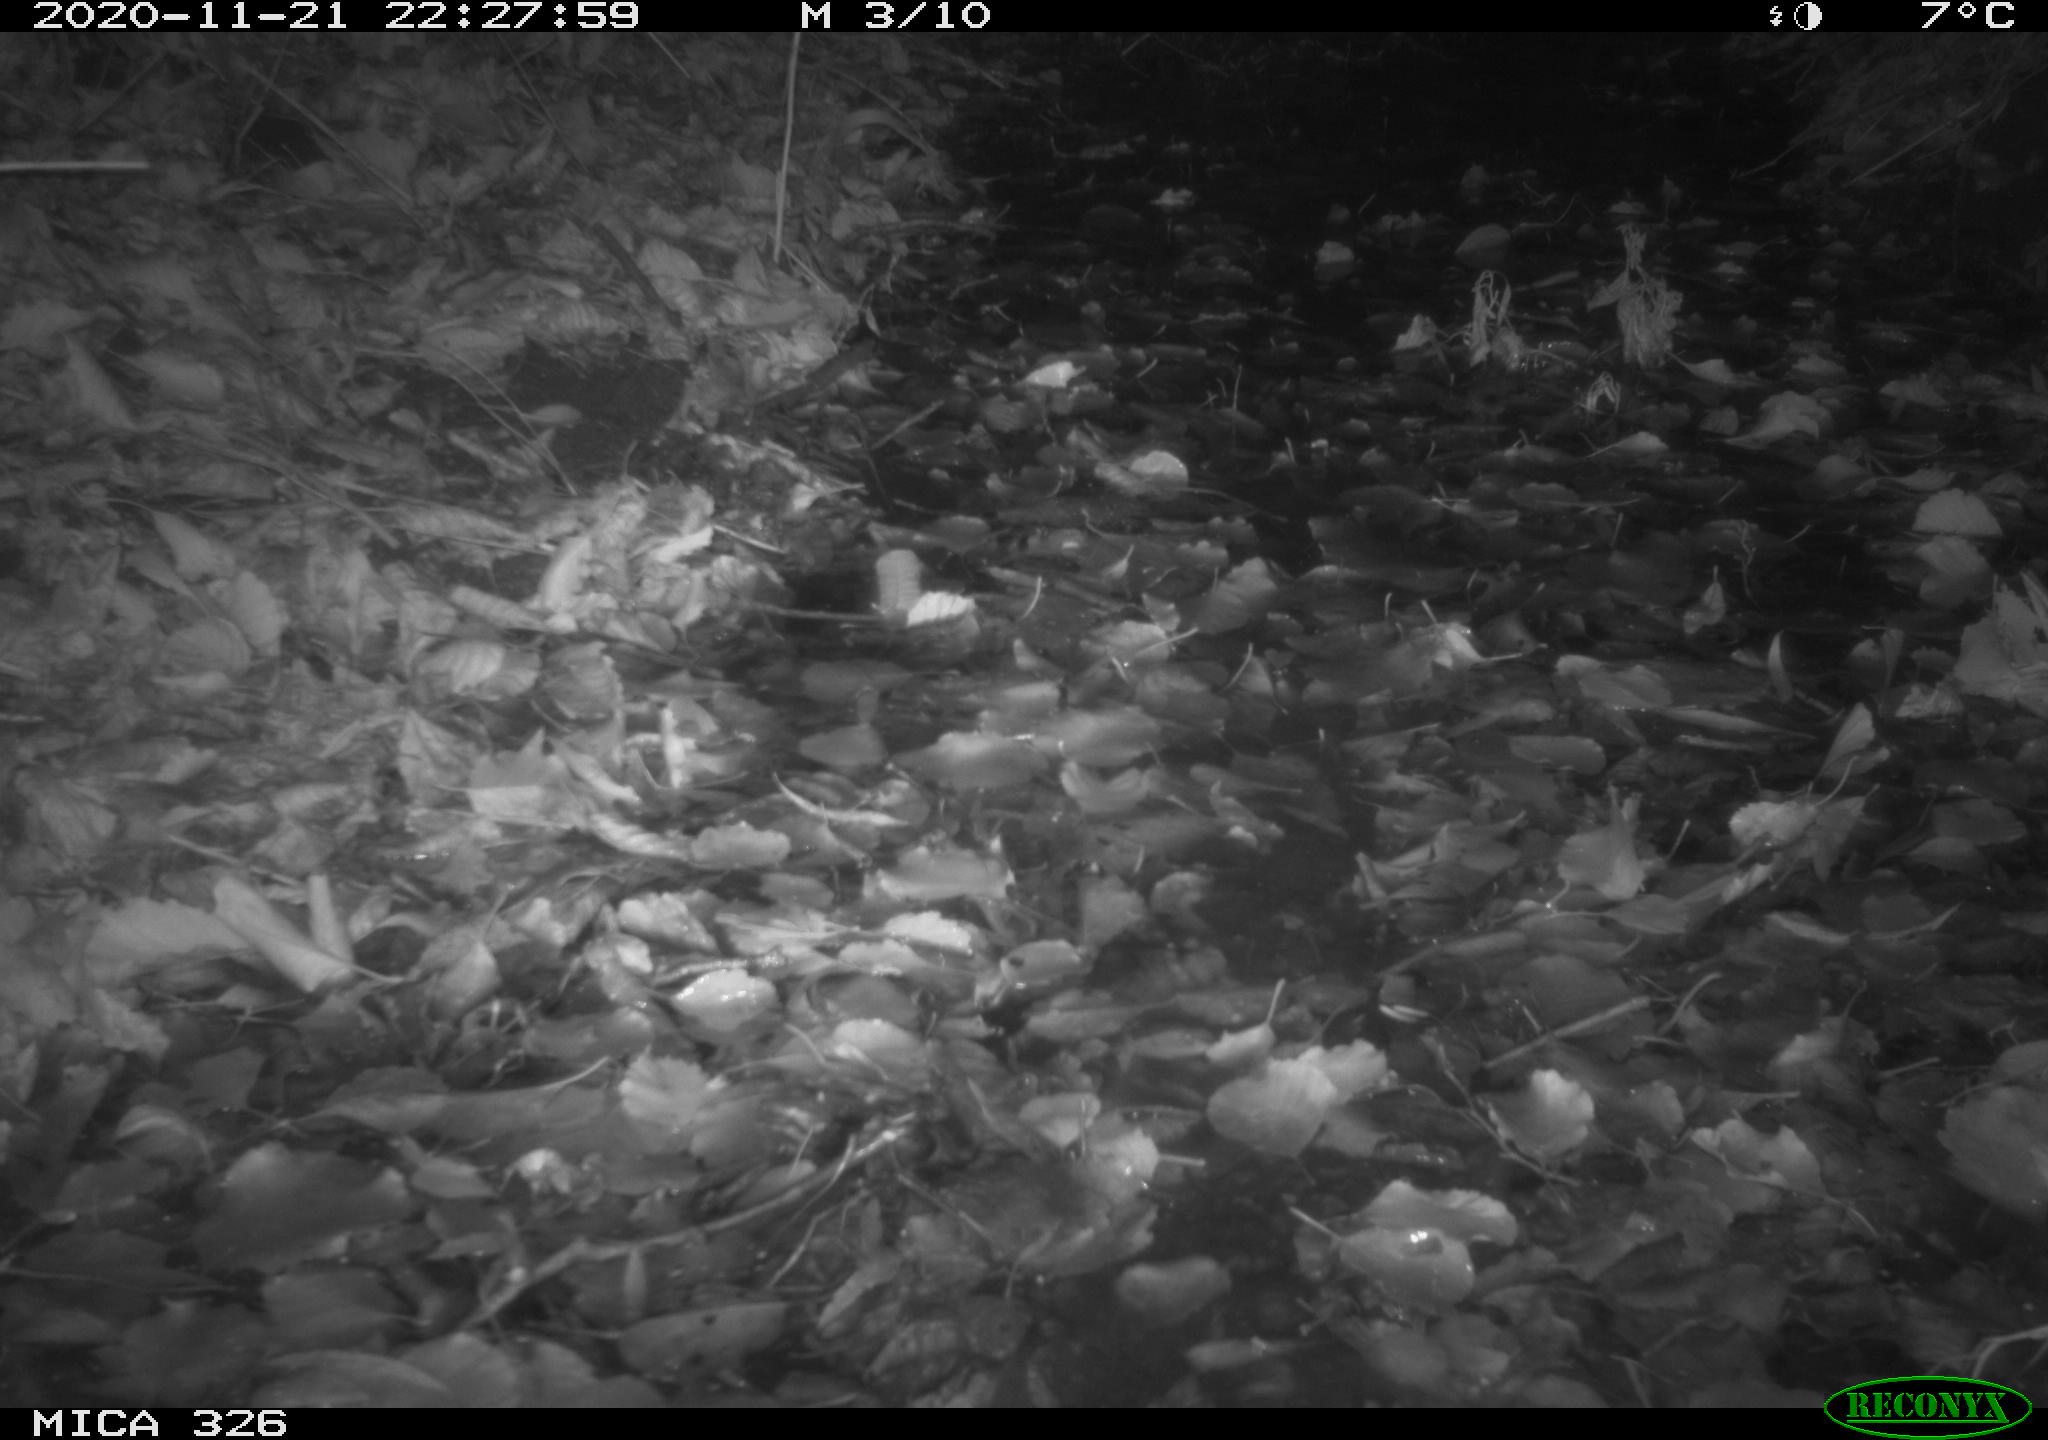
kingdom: Animalia
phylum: Chordata
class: Mammalia
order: Carnivora
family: Mustelidae
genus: Lutra
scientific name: Lutra lutra
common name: European otter
